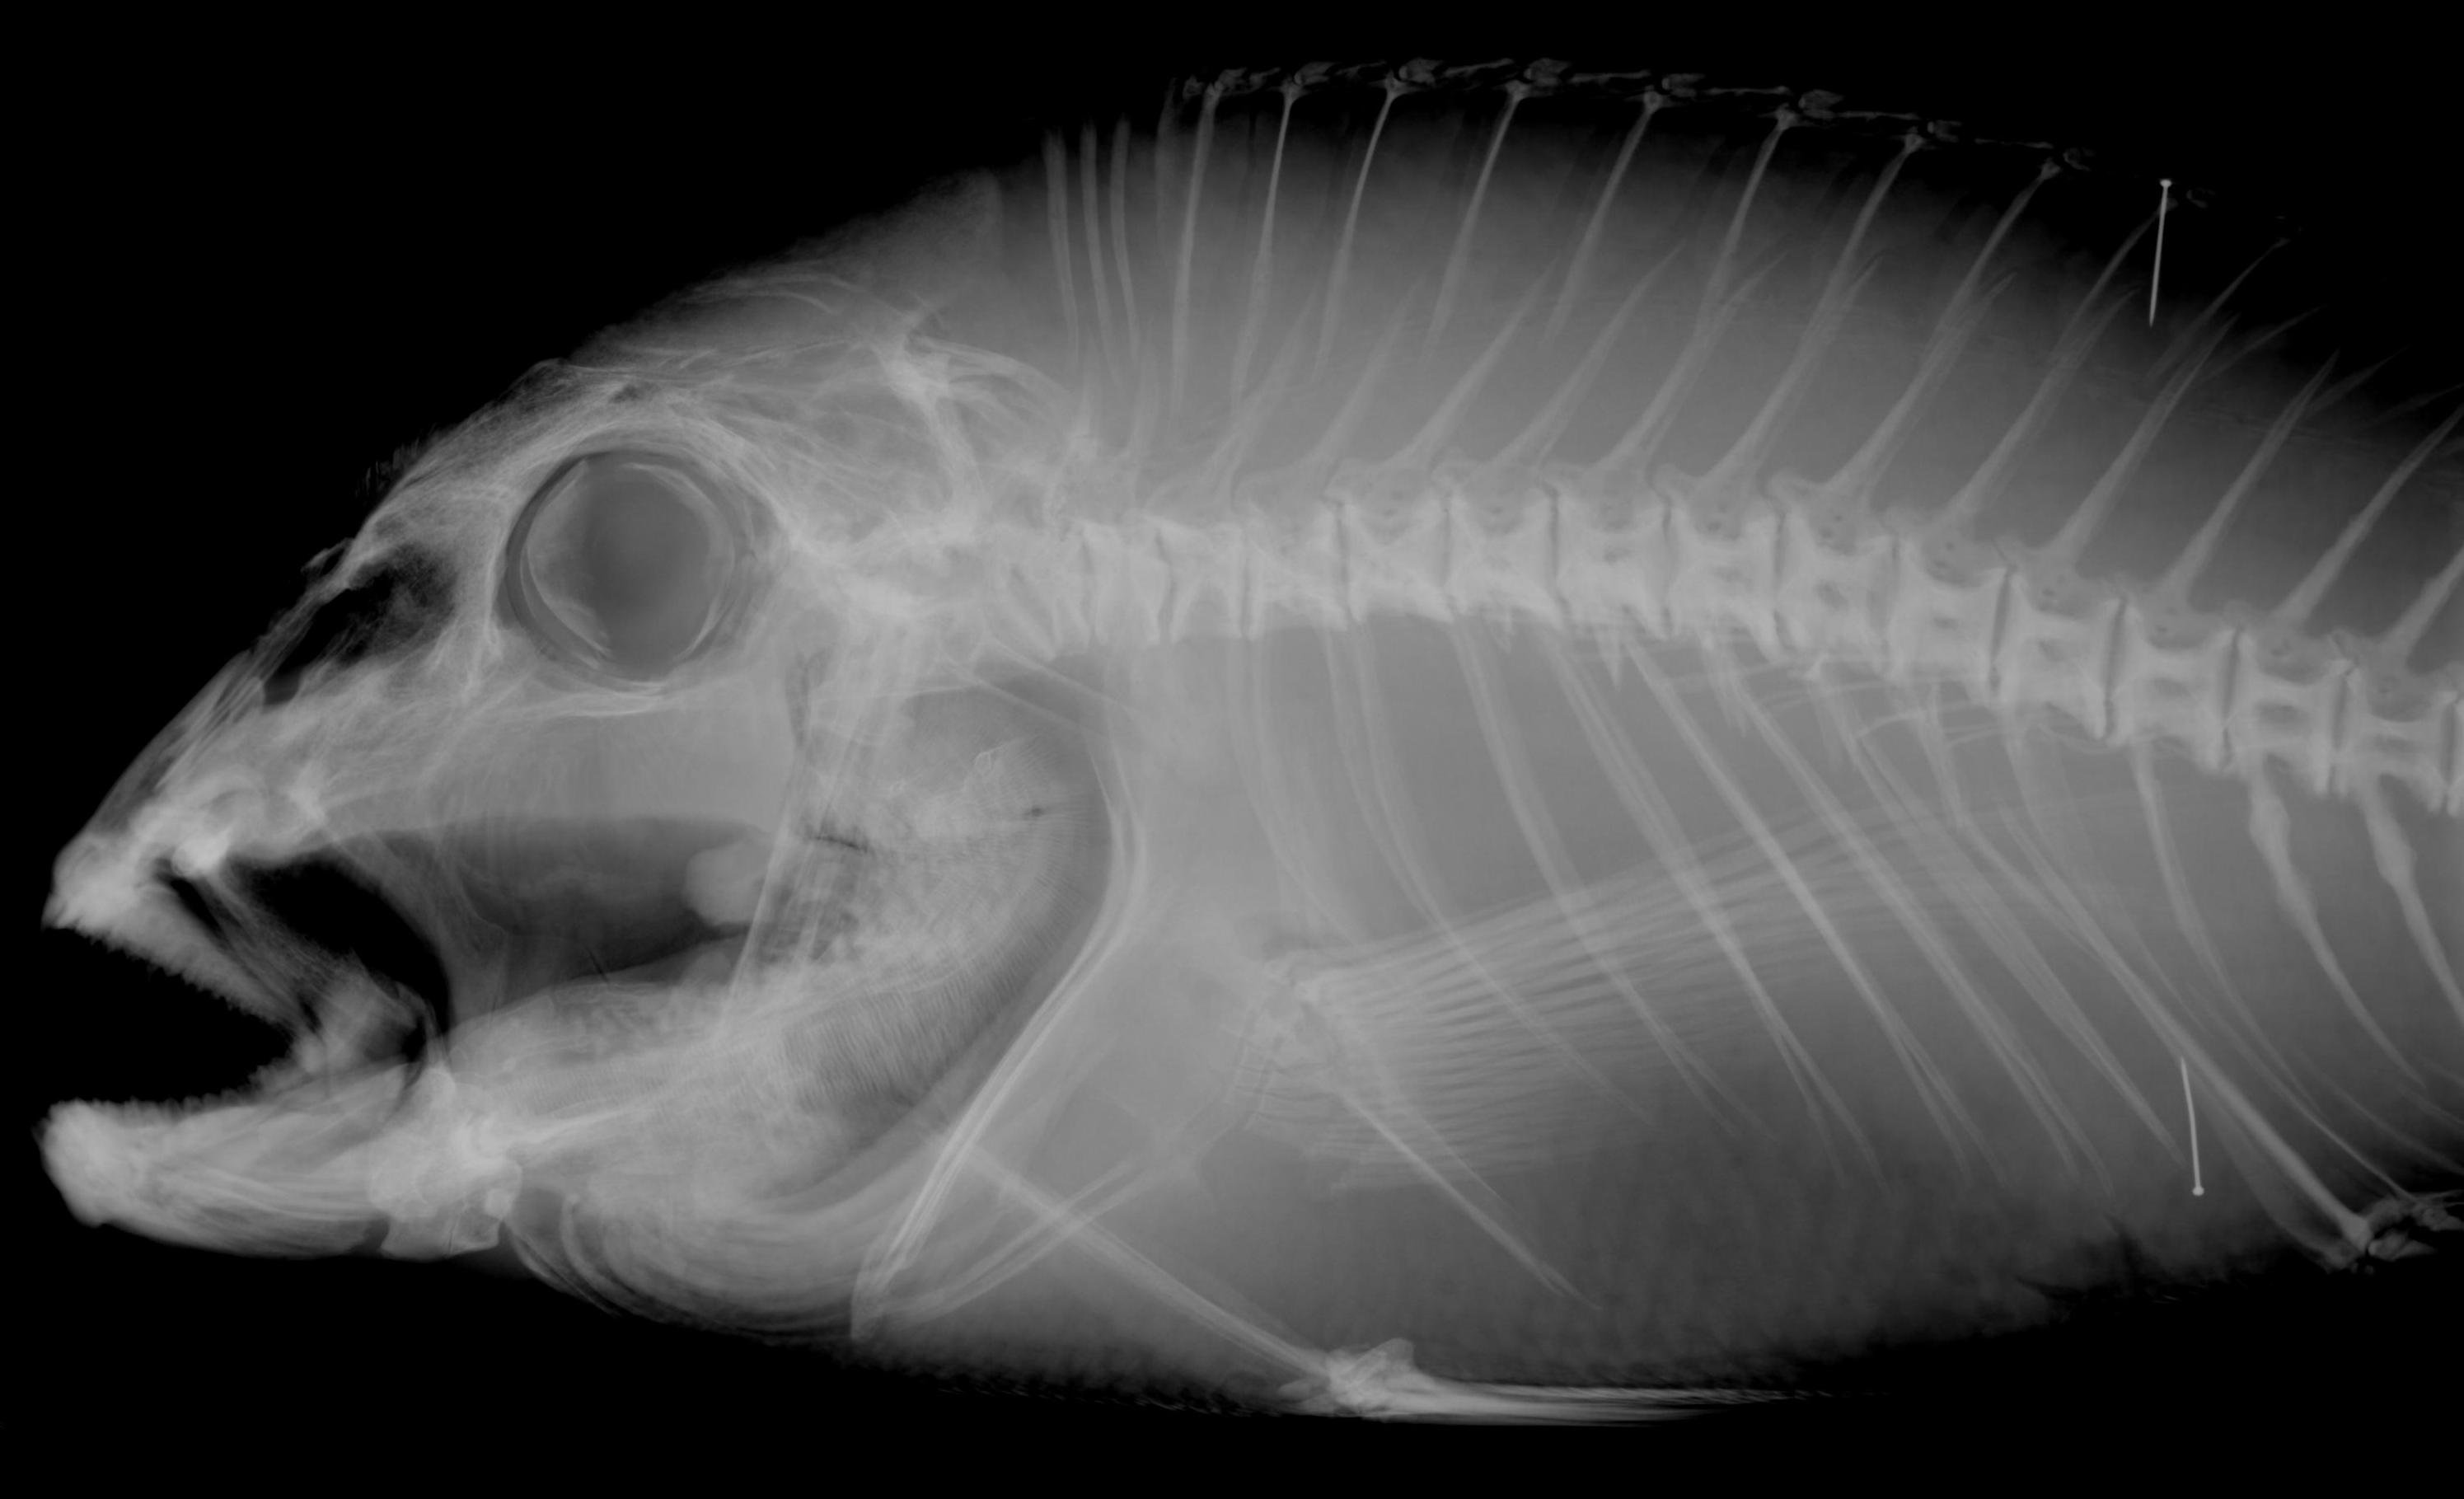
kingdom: Animalia
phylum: Chordata
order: Perciformes
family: Sparidae
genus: Polysteganus
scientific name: Polysteganus mascarenensis
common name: Mascarene red seabream
